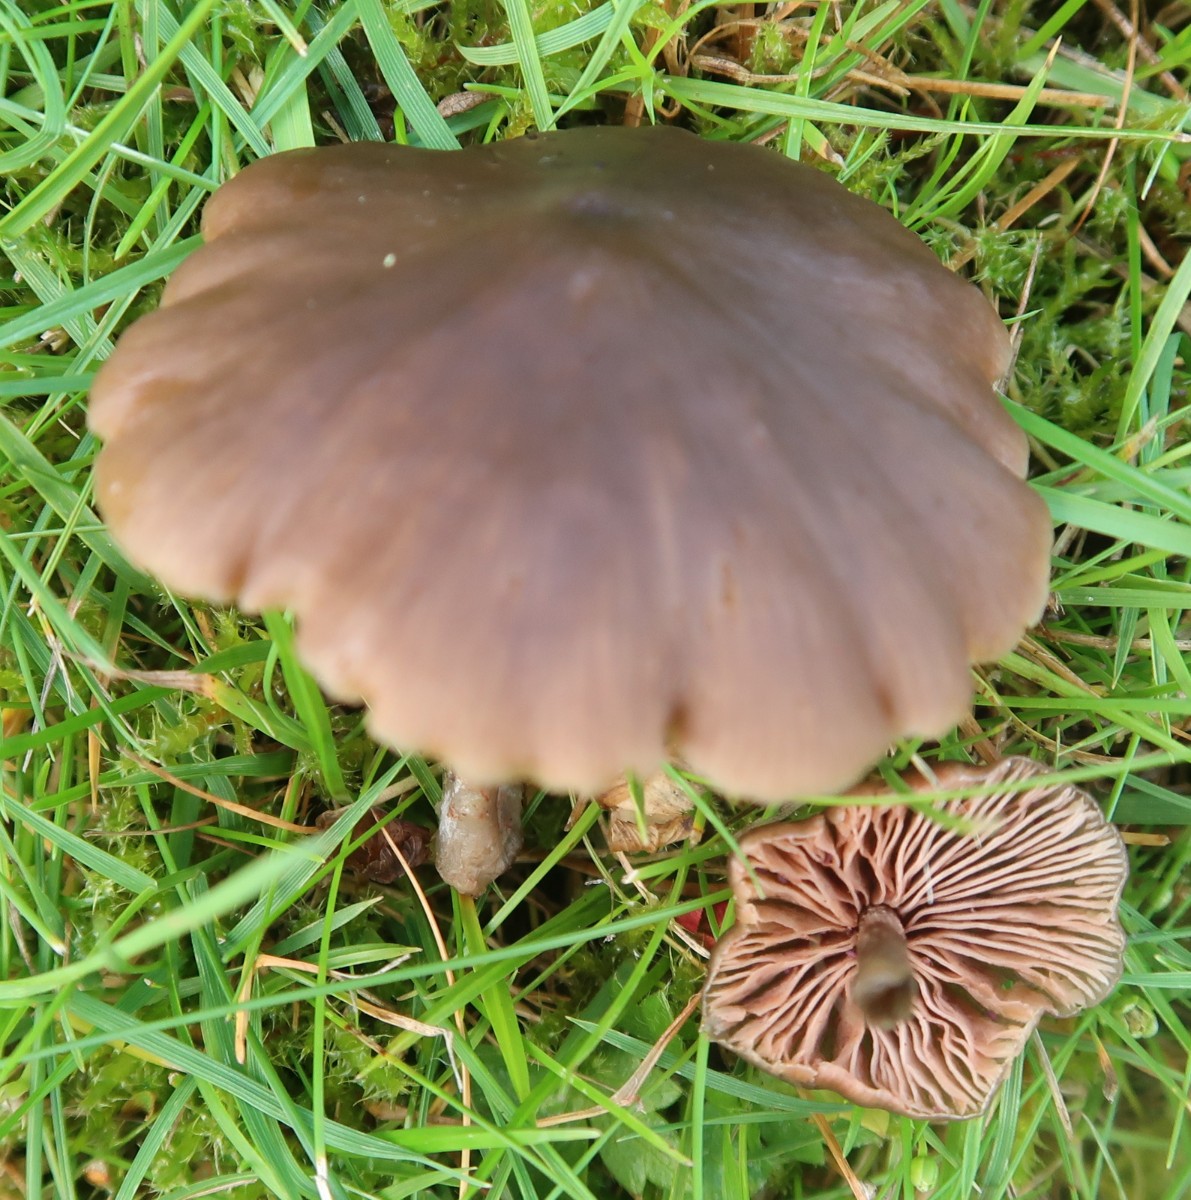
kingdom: Fungi
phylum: Basidiomycota
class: Agaricomycetes
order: Agaricales
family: Entolomataceae
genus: Entoloma
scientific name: Entoloma
